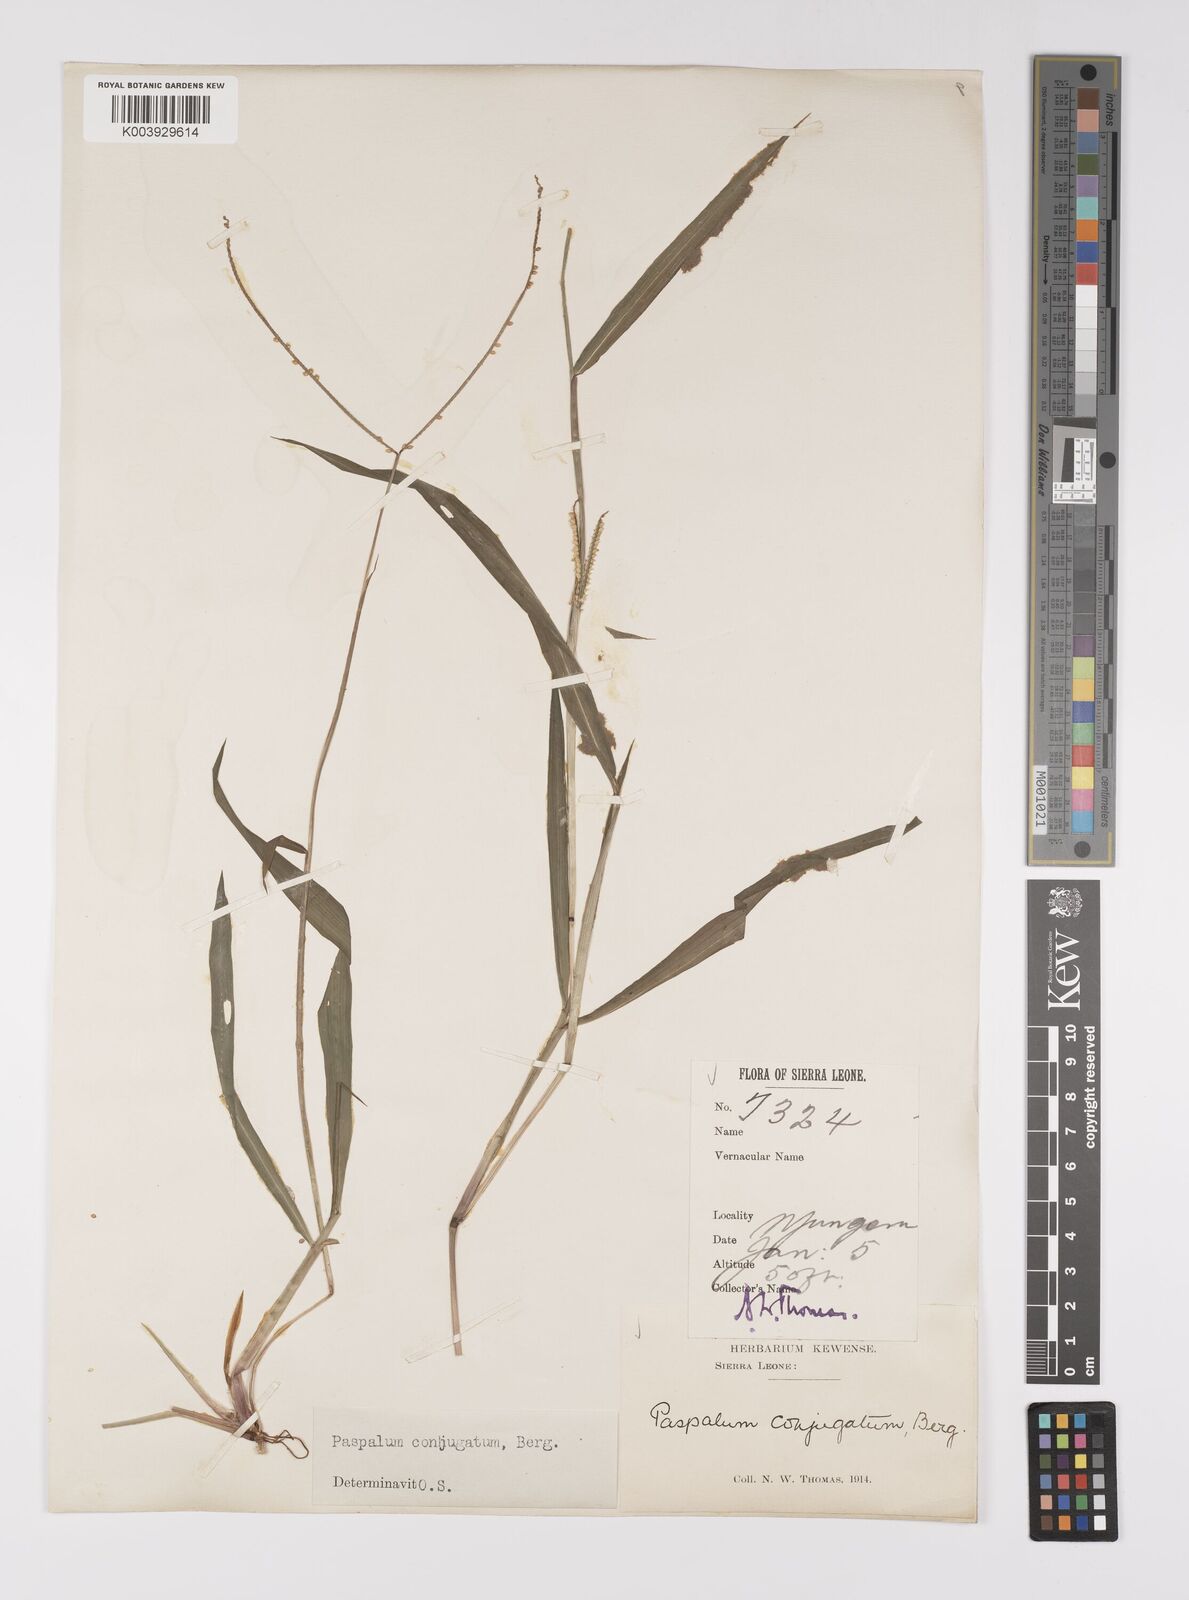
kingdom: Plantae
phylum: Tracheophyta
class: Liliopsida
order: Poales
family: Poaceae
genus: Paspalum
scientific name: Paspalum conjugatum
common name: Hilograss
